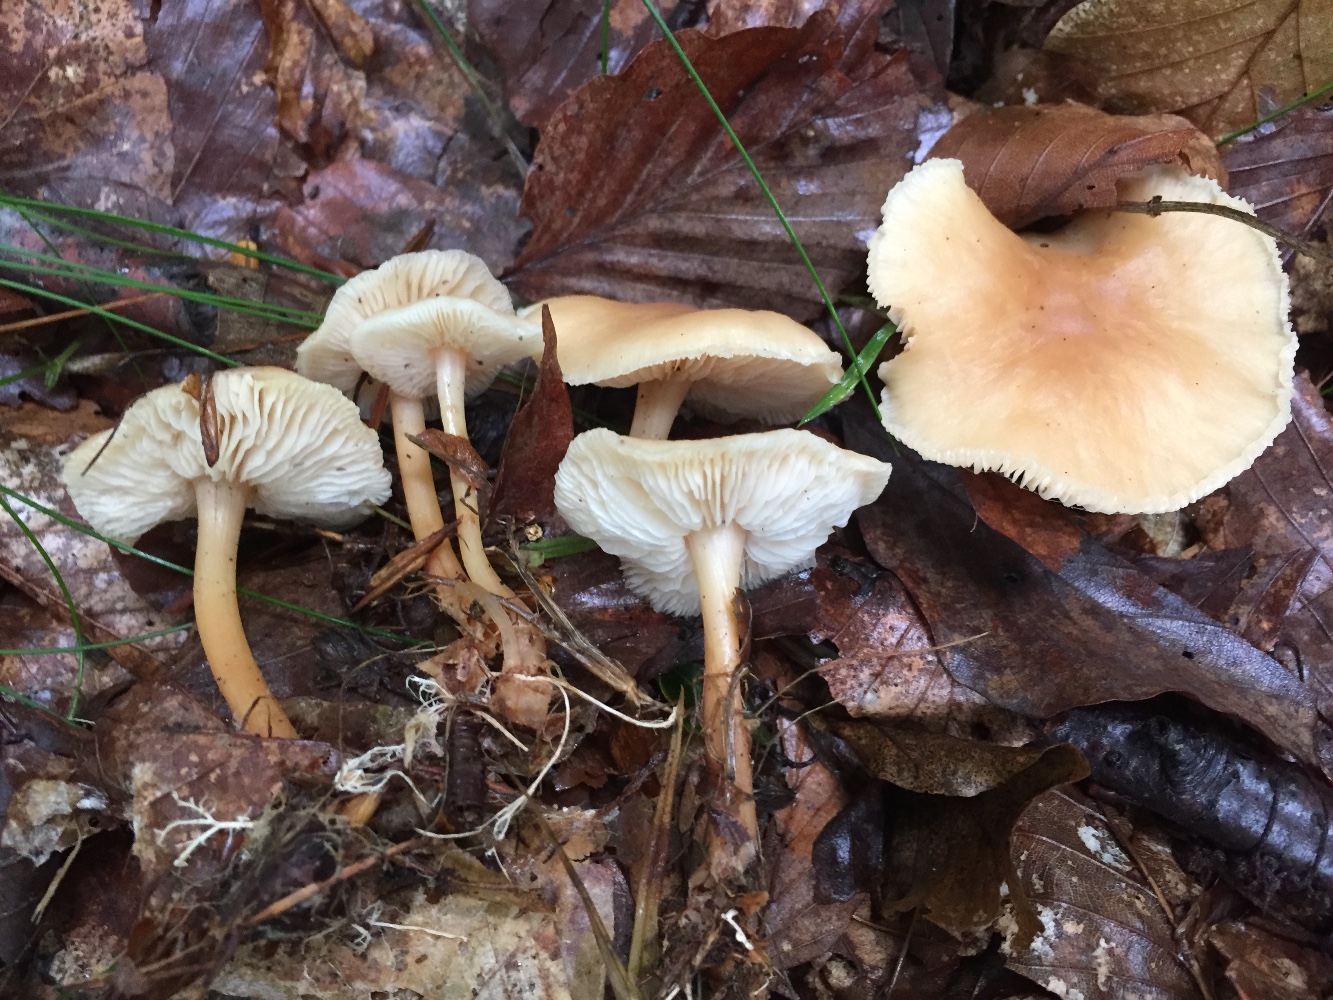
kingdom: Fungi
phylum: Basidiomycota
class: Agaricomycetes
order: Agaricales
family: Omphalotaceae
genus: Gymnopus
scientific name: Gymnopus dryophilus
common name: løv-fladhat
